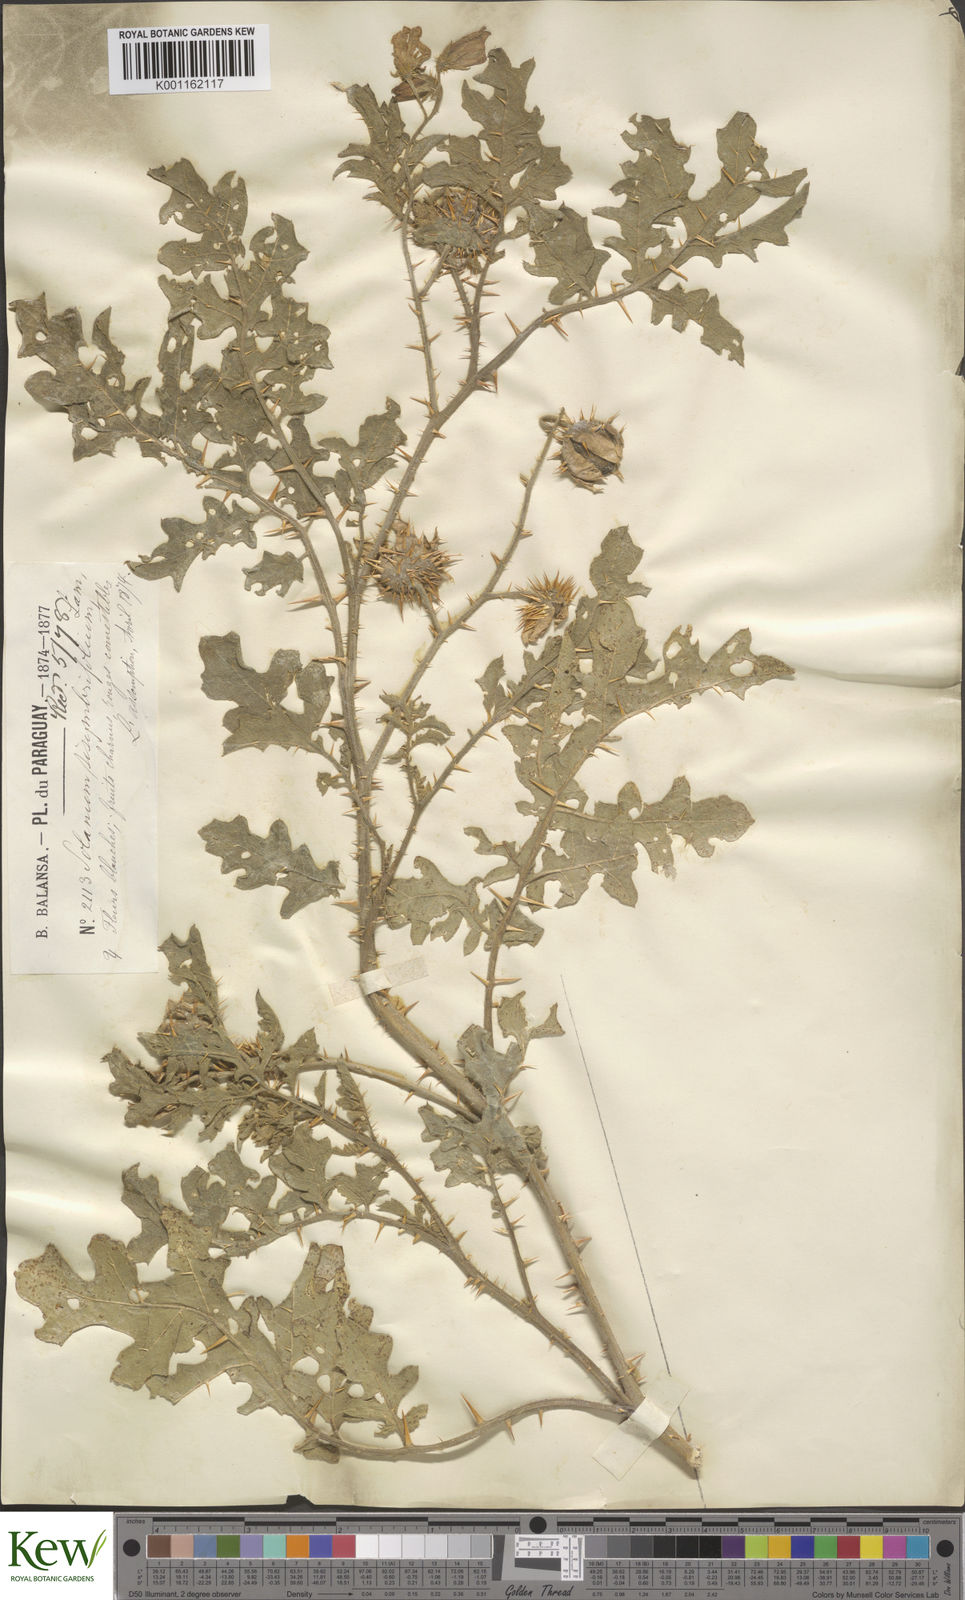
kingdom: Plantae
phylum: Tracheophyta
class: Magnoliopsida
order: Solanales
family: Solanaceae
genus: Solanum
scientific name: Solanum sisymbriifolium
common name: Red buffalo-bur
